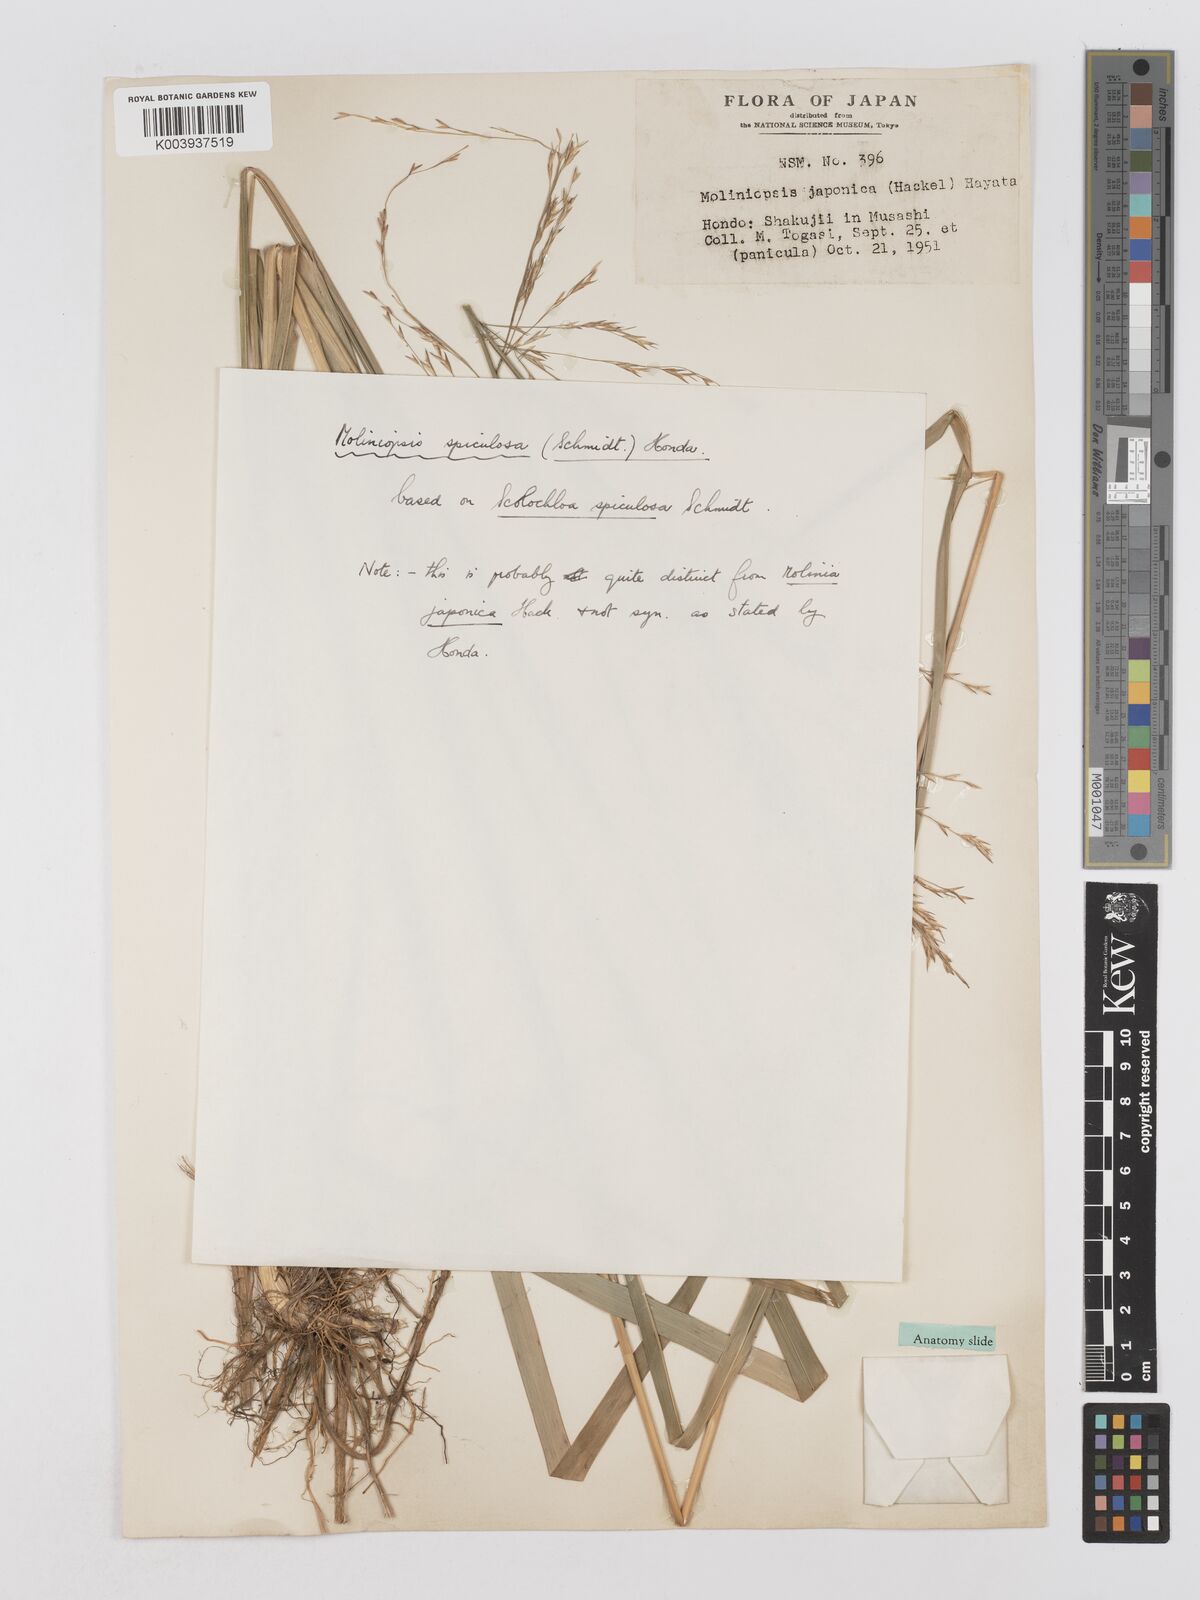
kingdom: Plantae
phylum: Tracheophyta
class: Liliopsida
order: Poales
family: Poaceae
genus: Moliniopsis
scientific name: Moliniopsis japonica
